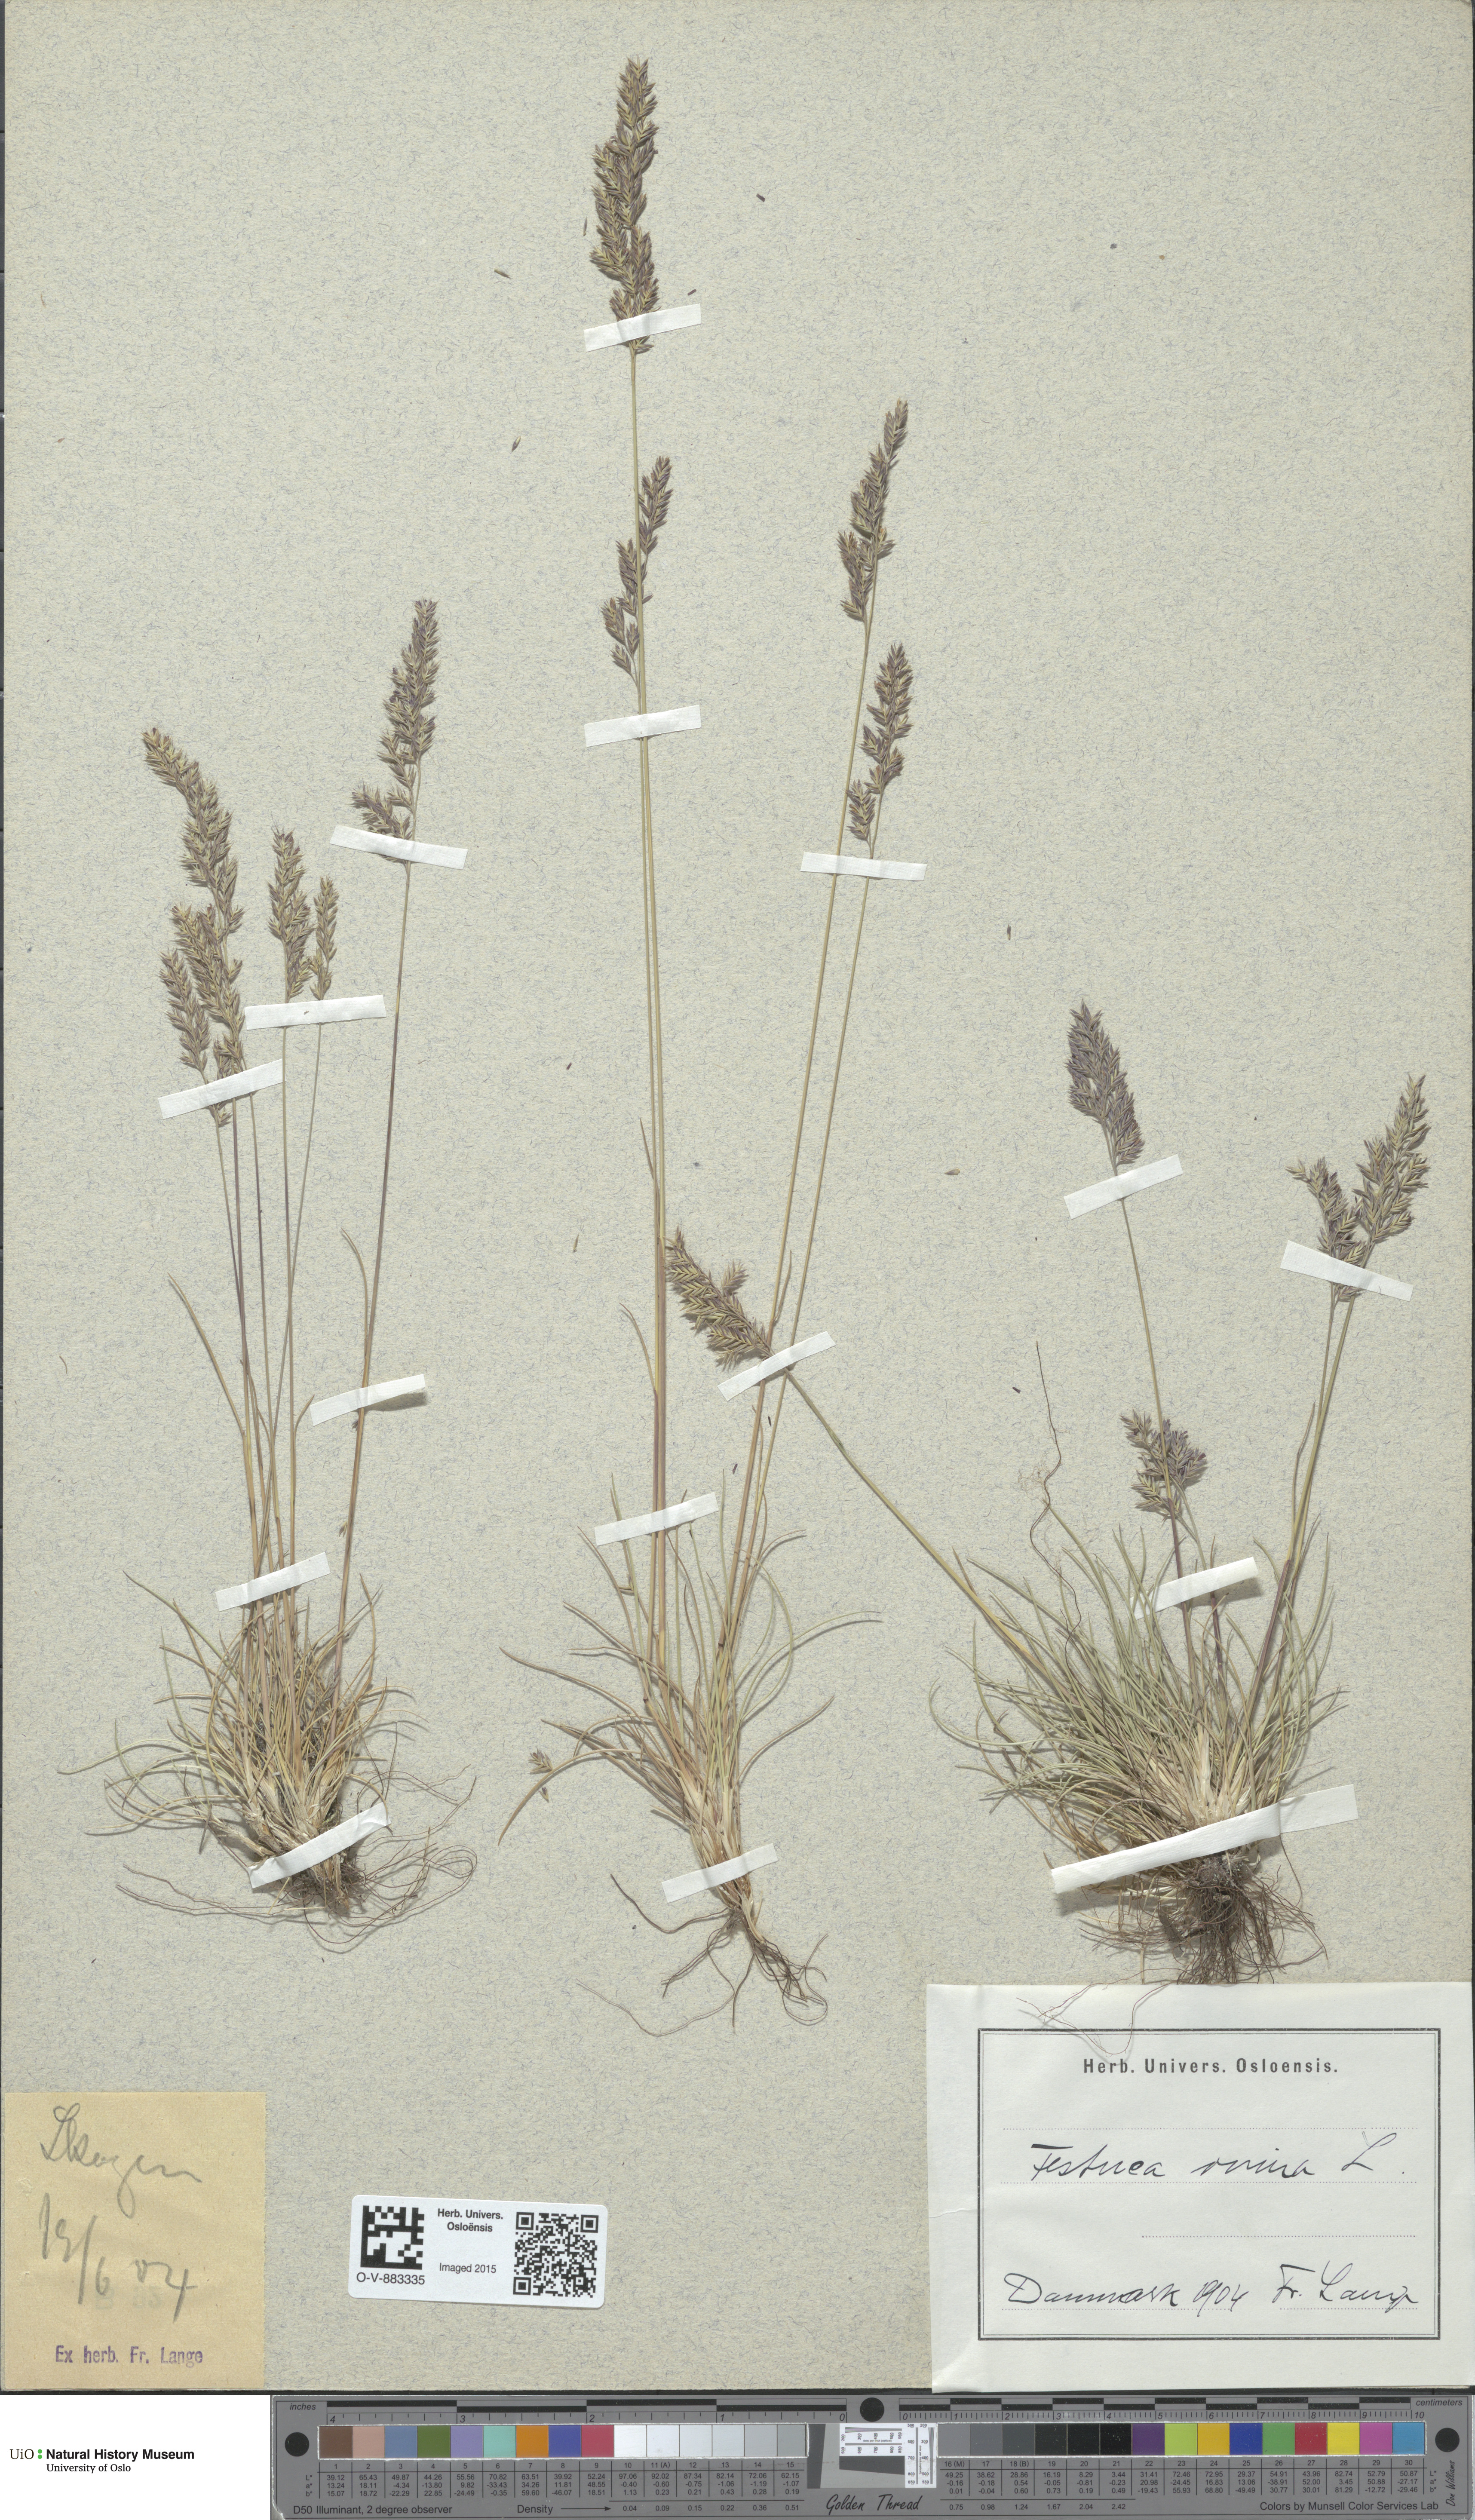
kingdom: Plantae
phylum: Tracheophyta
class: Liliopsida
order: Poales
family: Poaceae
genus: Festuca
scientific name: Festuca ovina
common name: Sheep fescue
